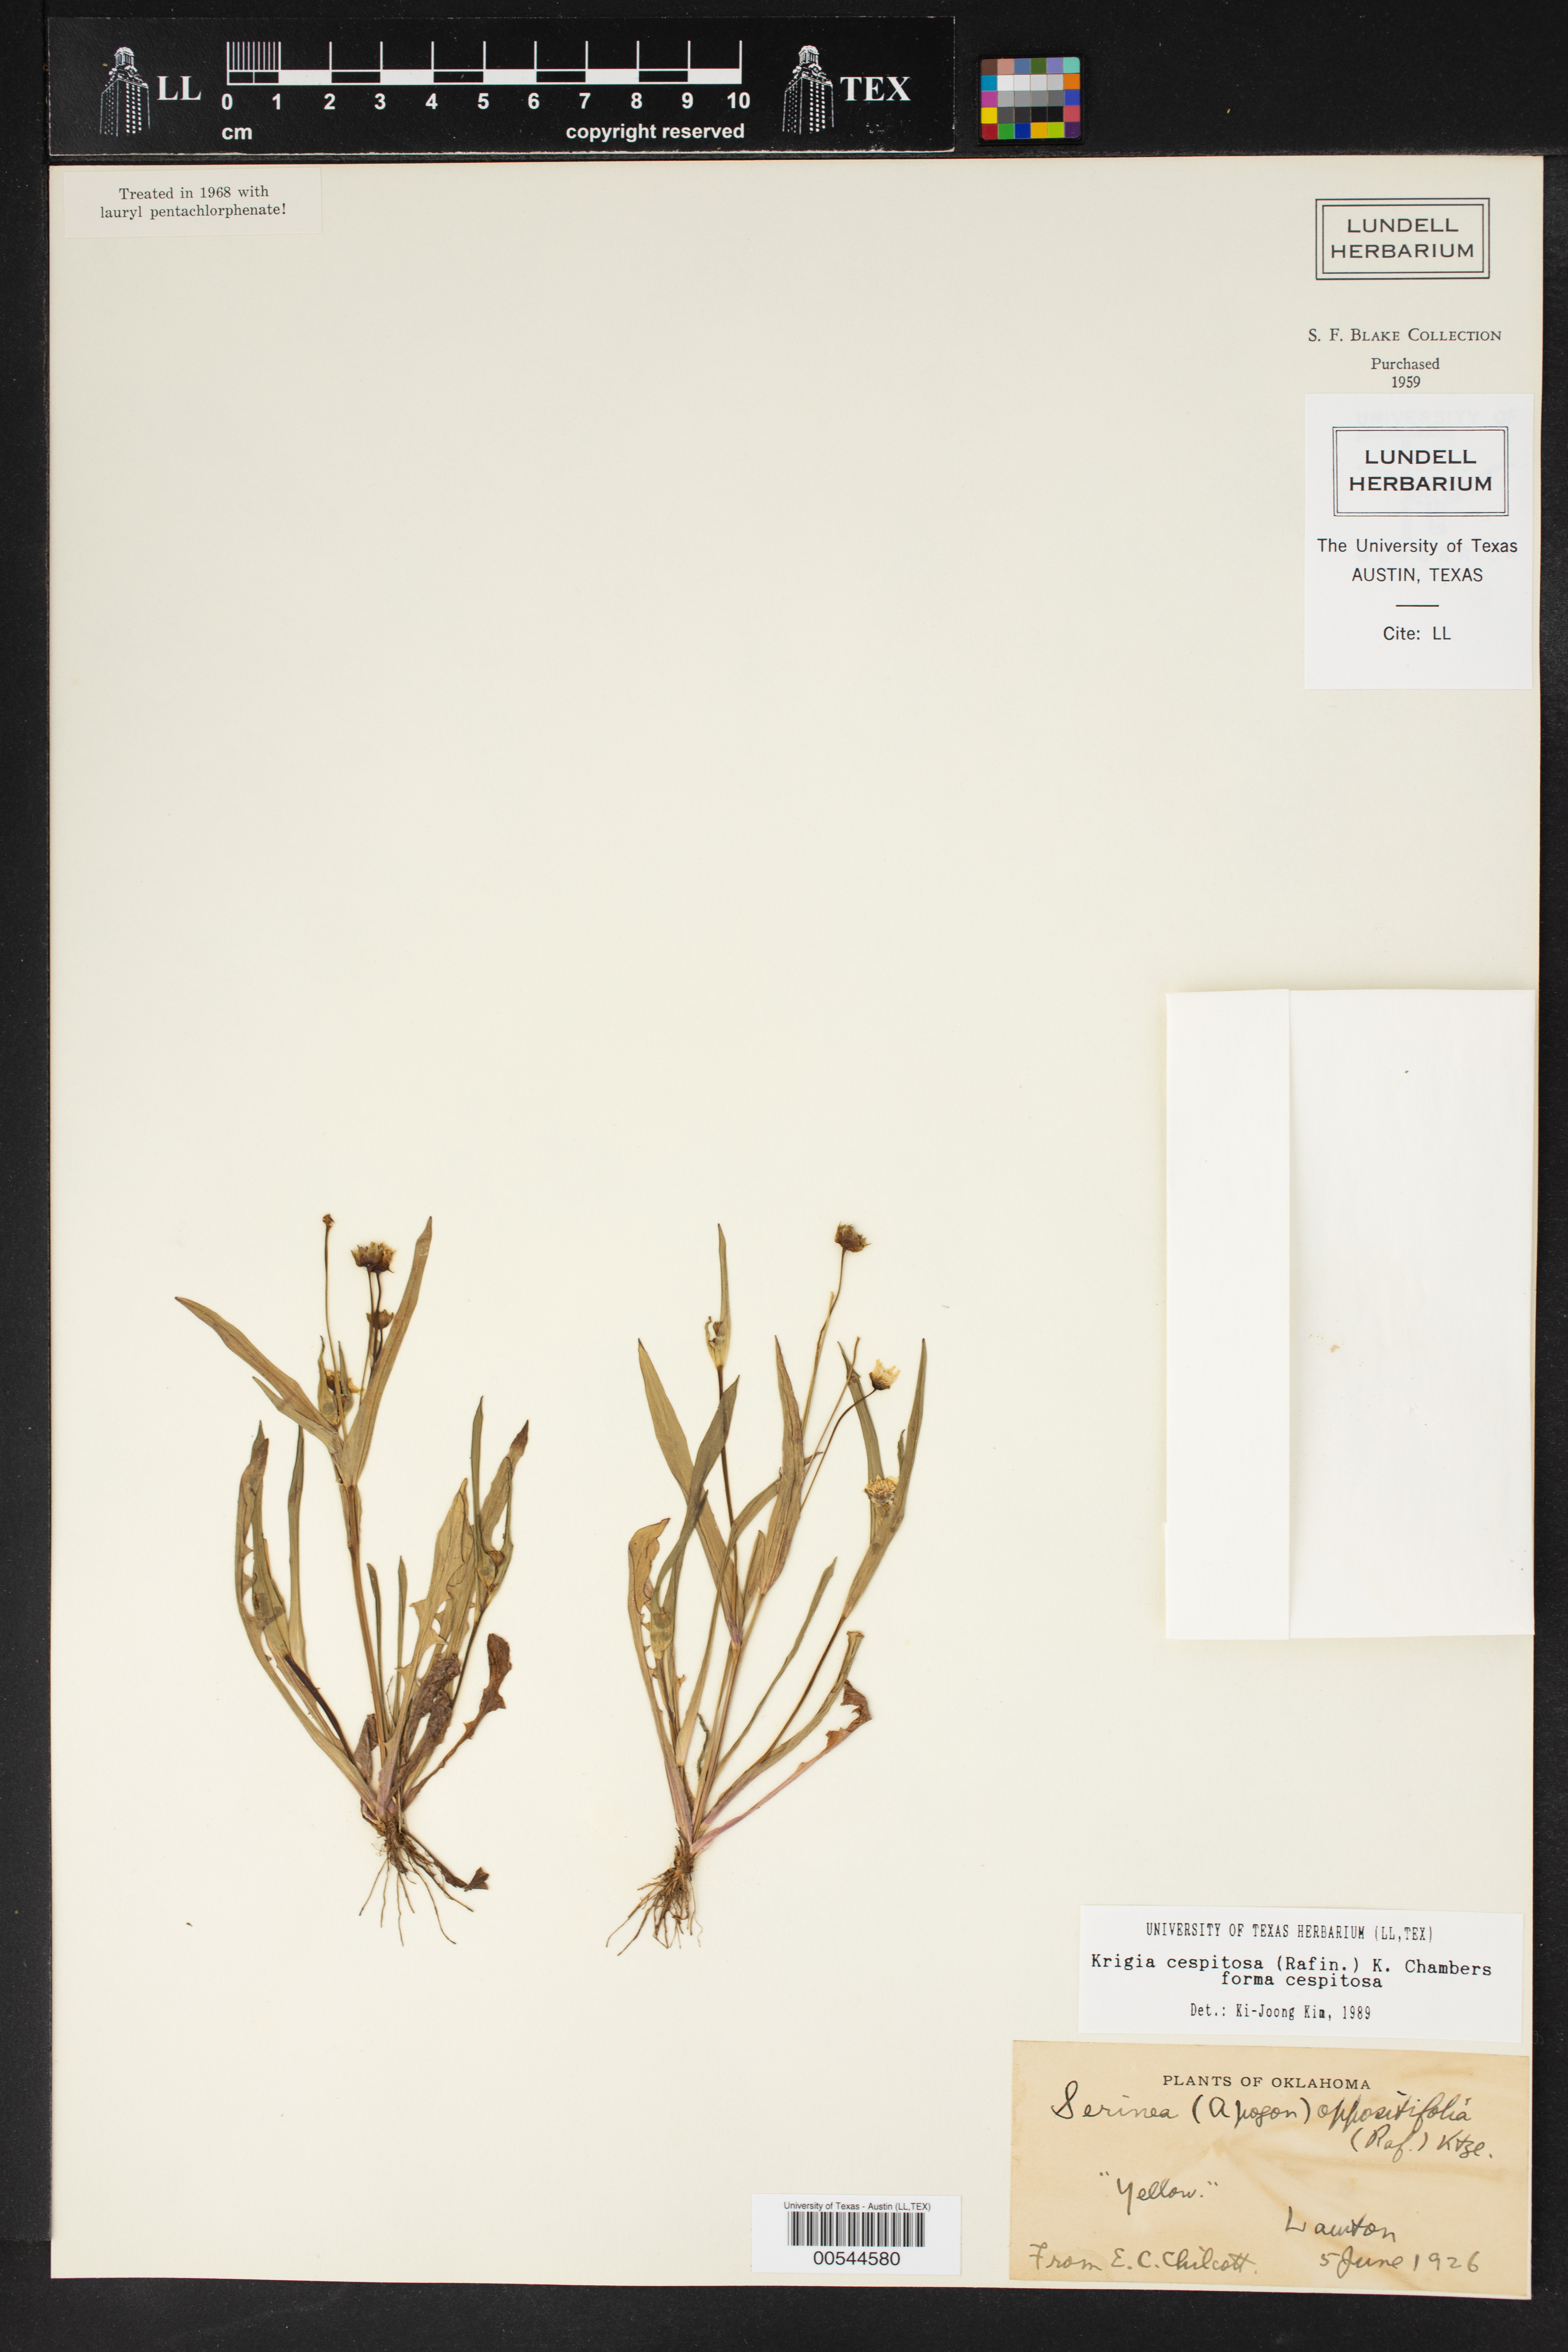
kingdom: Plantae
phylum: Tracheophyta
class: Magnoliopsida
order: Asterales
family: Asteraceae
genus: Krigia
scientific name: Krigia cespitosa
